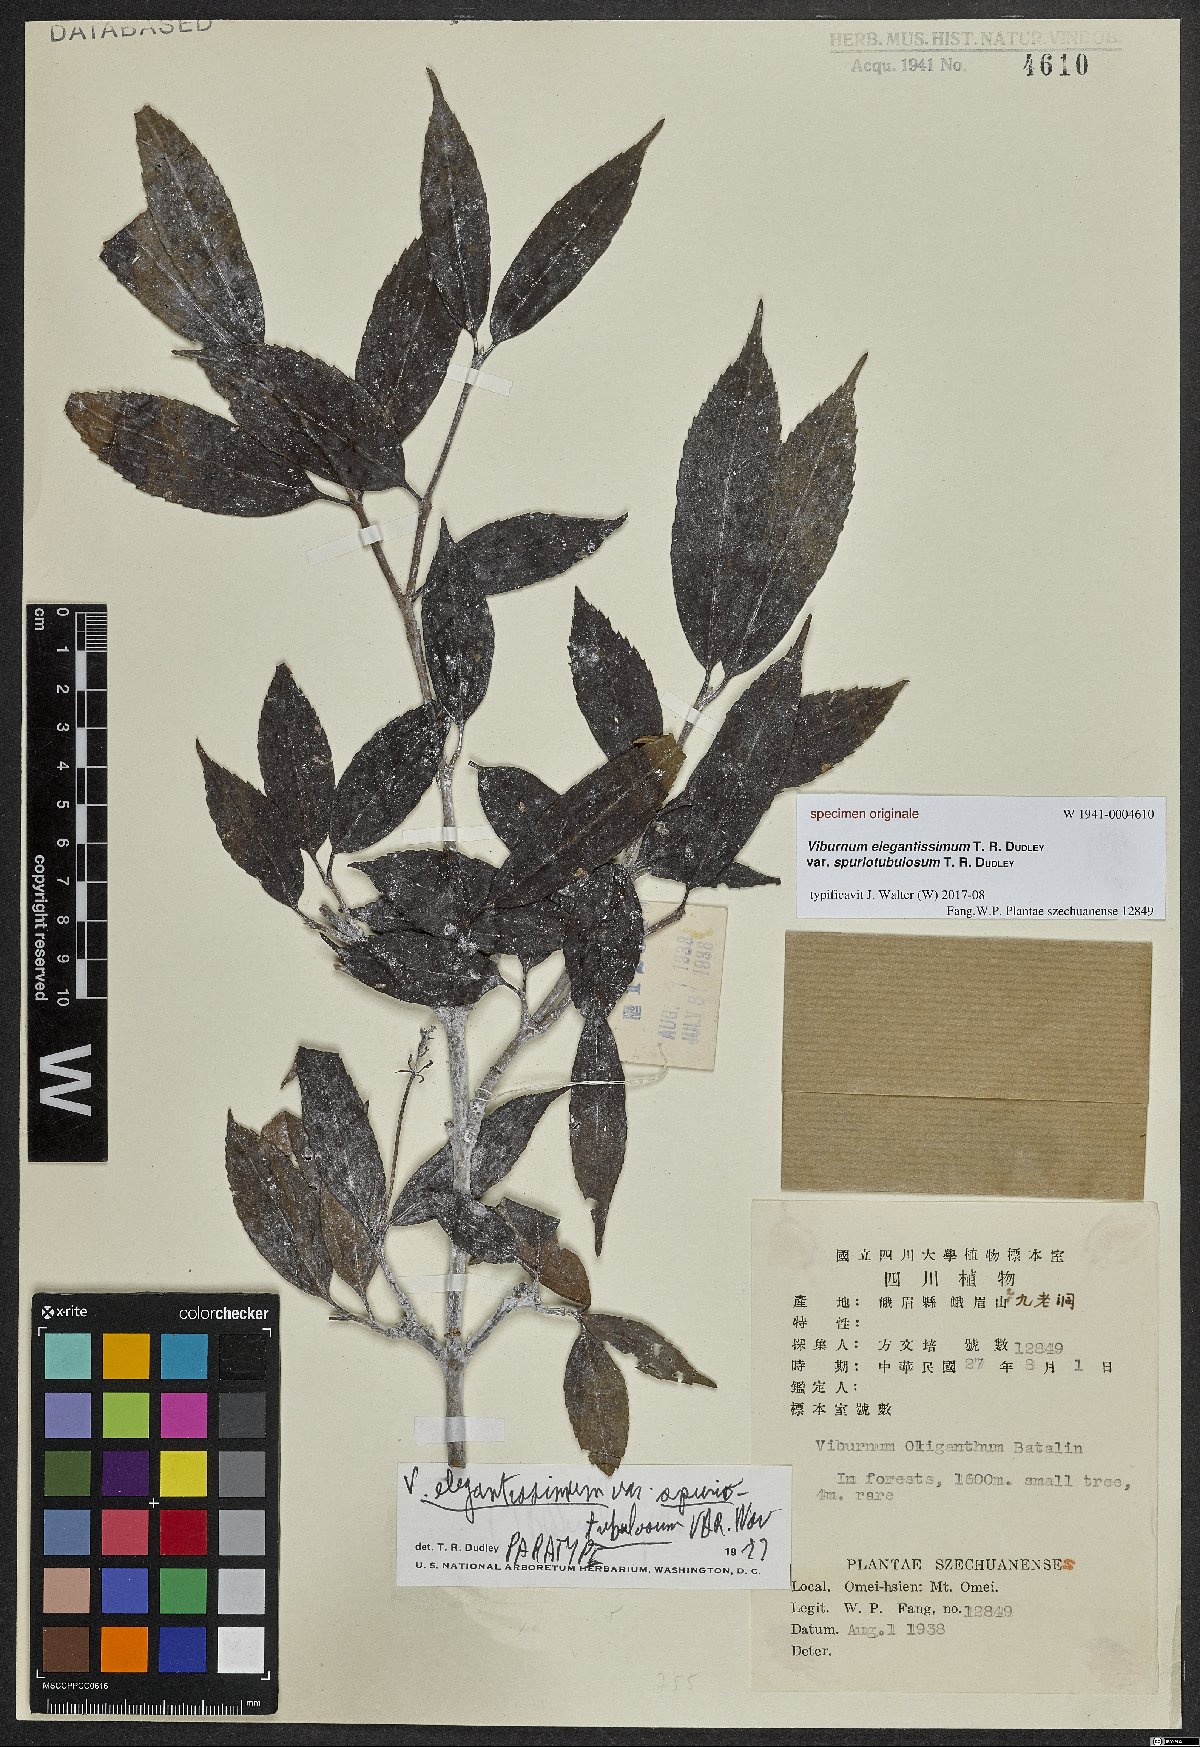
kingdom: Plantae
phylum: Tracheophyta
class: Magnoliopsida
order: Dipsacales
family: Viburnaceae
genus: Viburnum
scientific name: Viburnum
